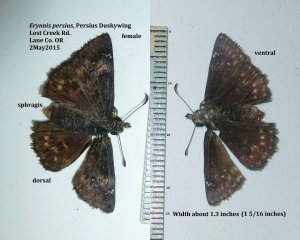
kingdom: Animalia
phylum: Arthropoda
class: Insecta
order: Lepidoptera
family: Hesperiidae
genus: Gesta
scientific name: Gesta
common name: Persius Duskywing
